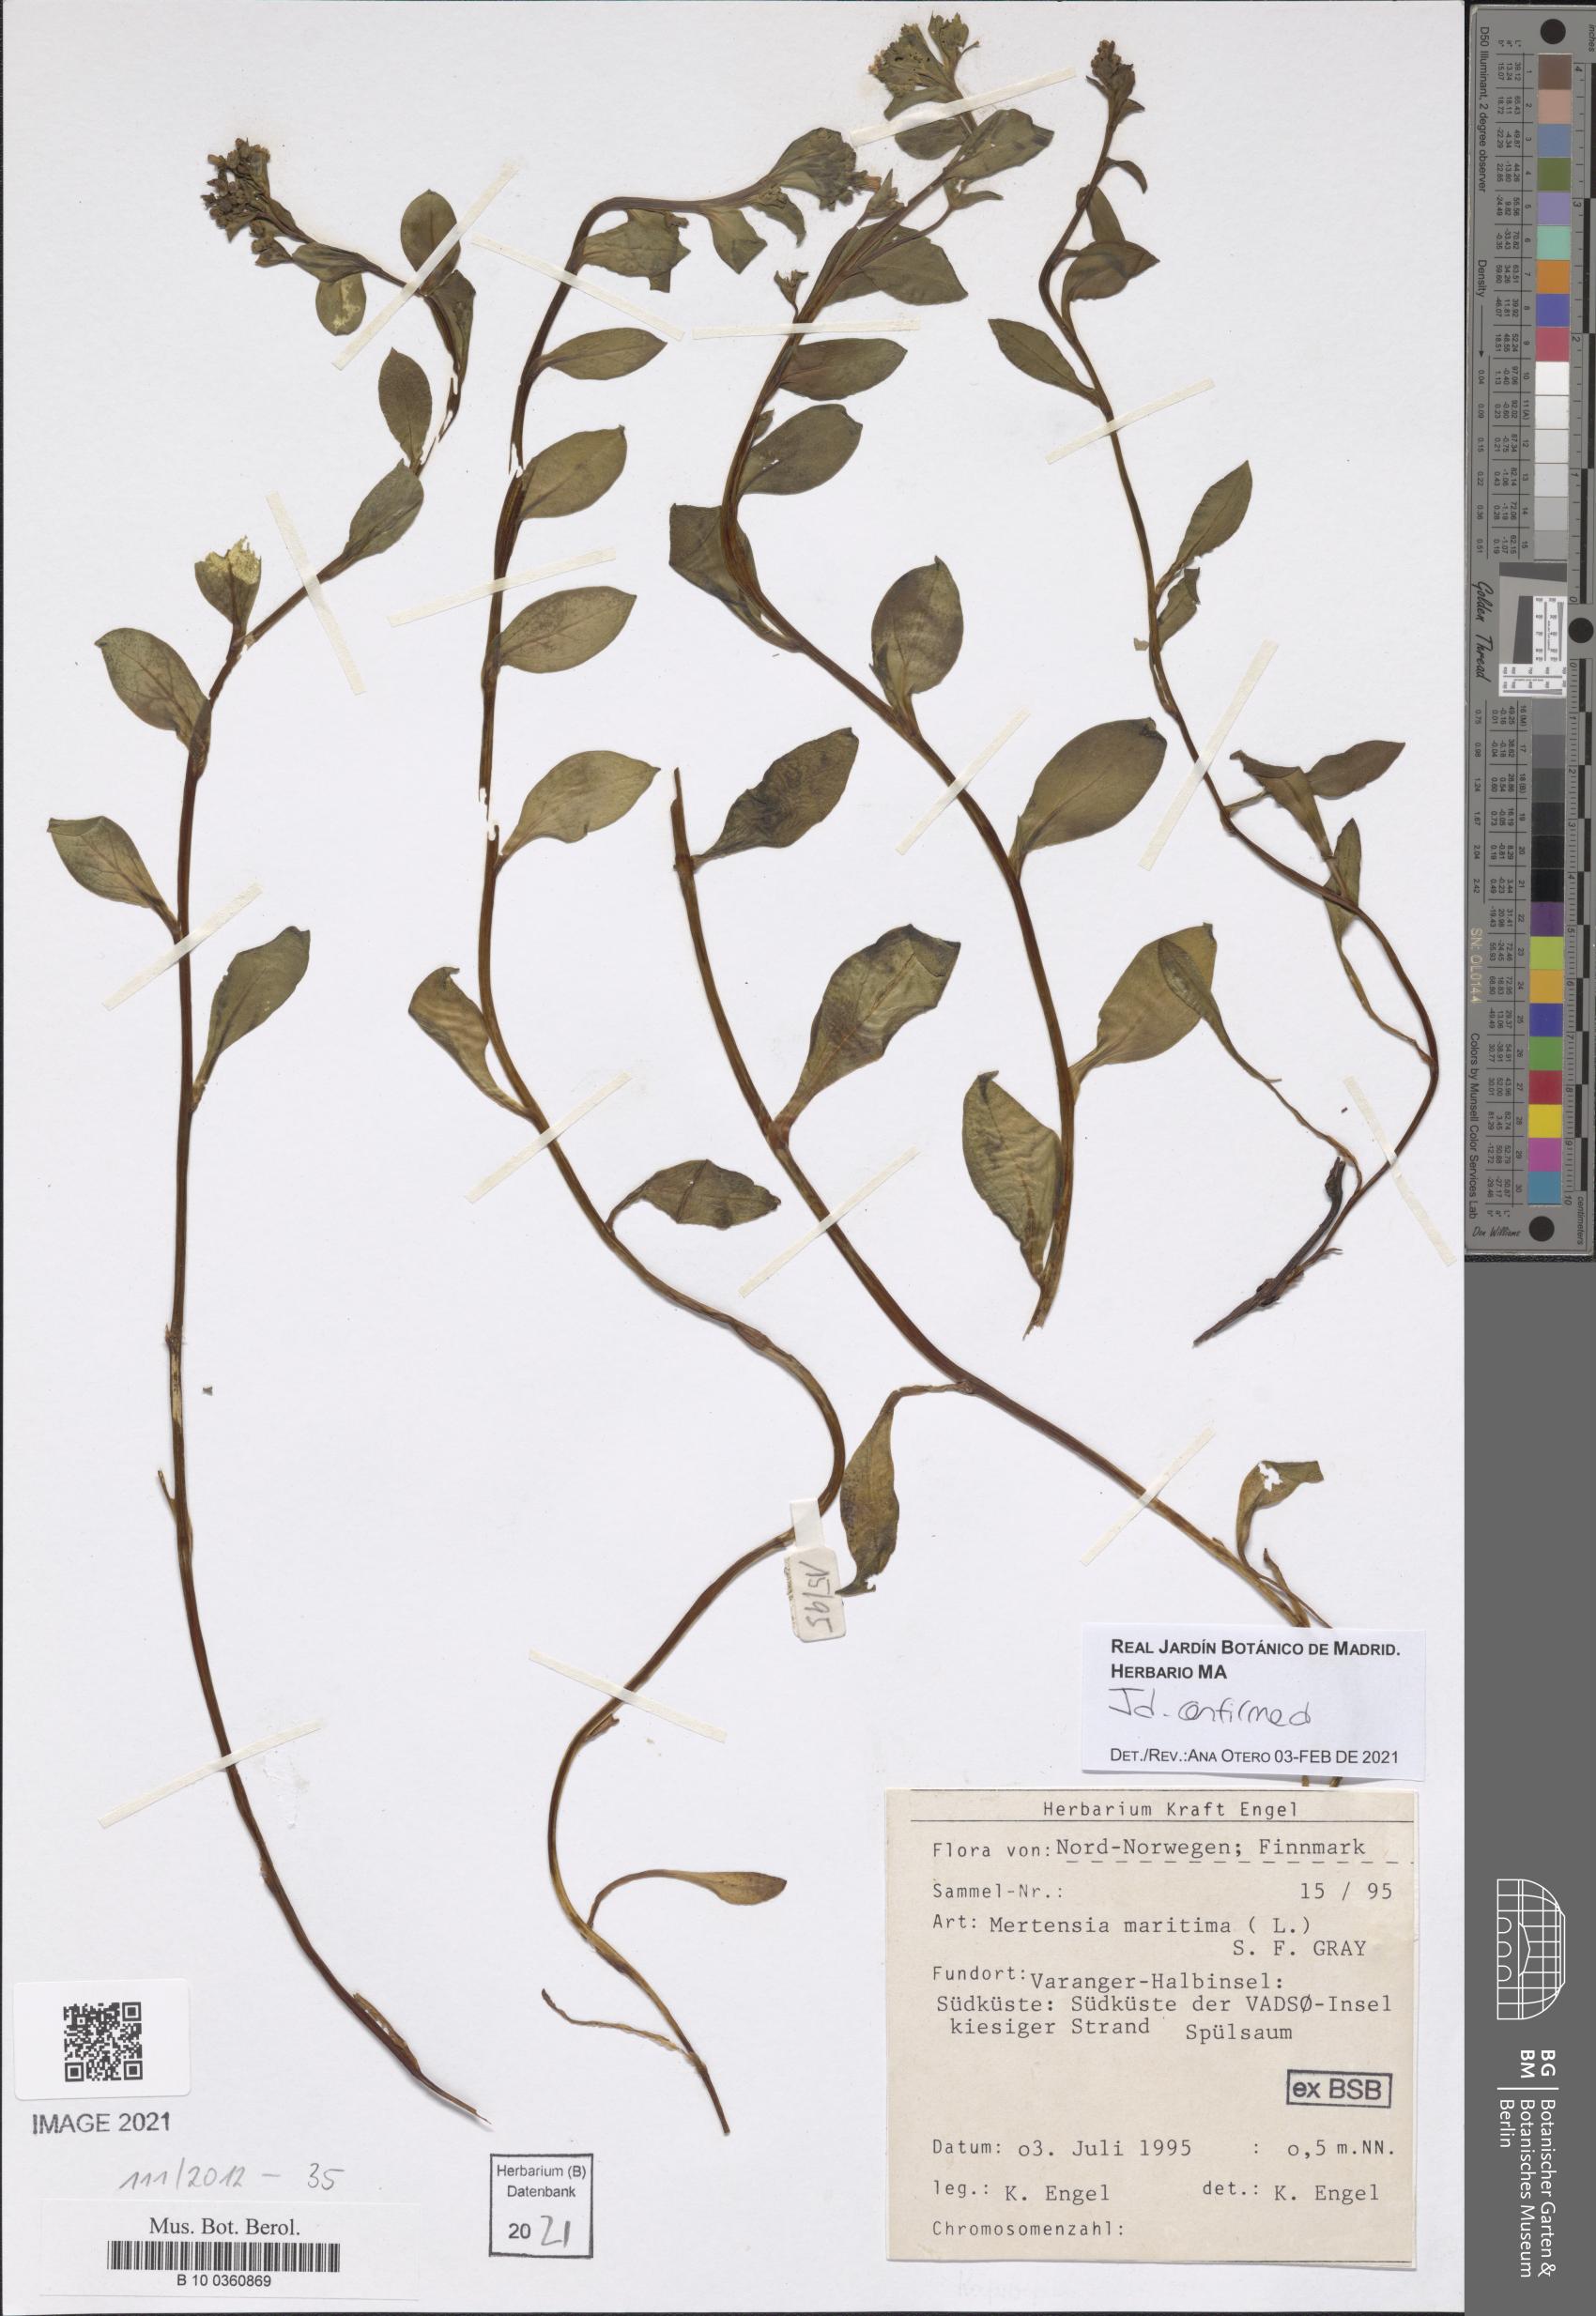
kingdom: Plantae
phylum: Tracheophyta
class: Magnoliopsida
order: Boraginales
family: Boraginaceae
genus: Mertensia
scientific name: Mertensia maritima
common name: Oysterplant
